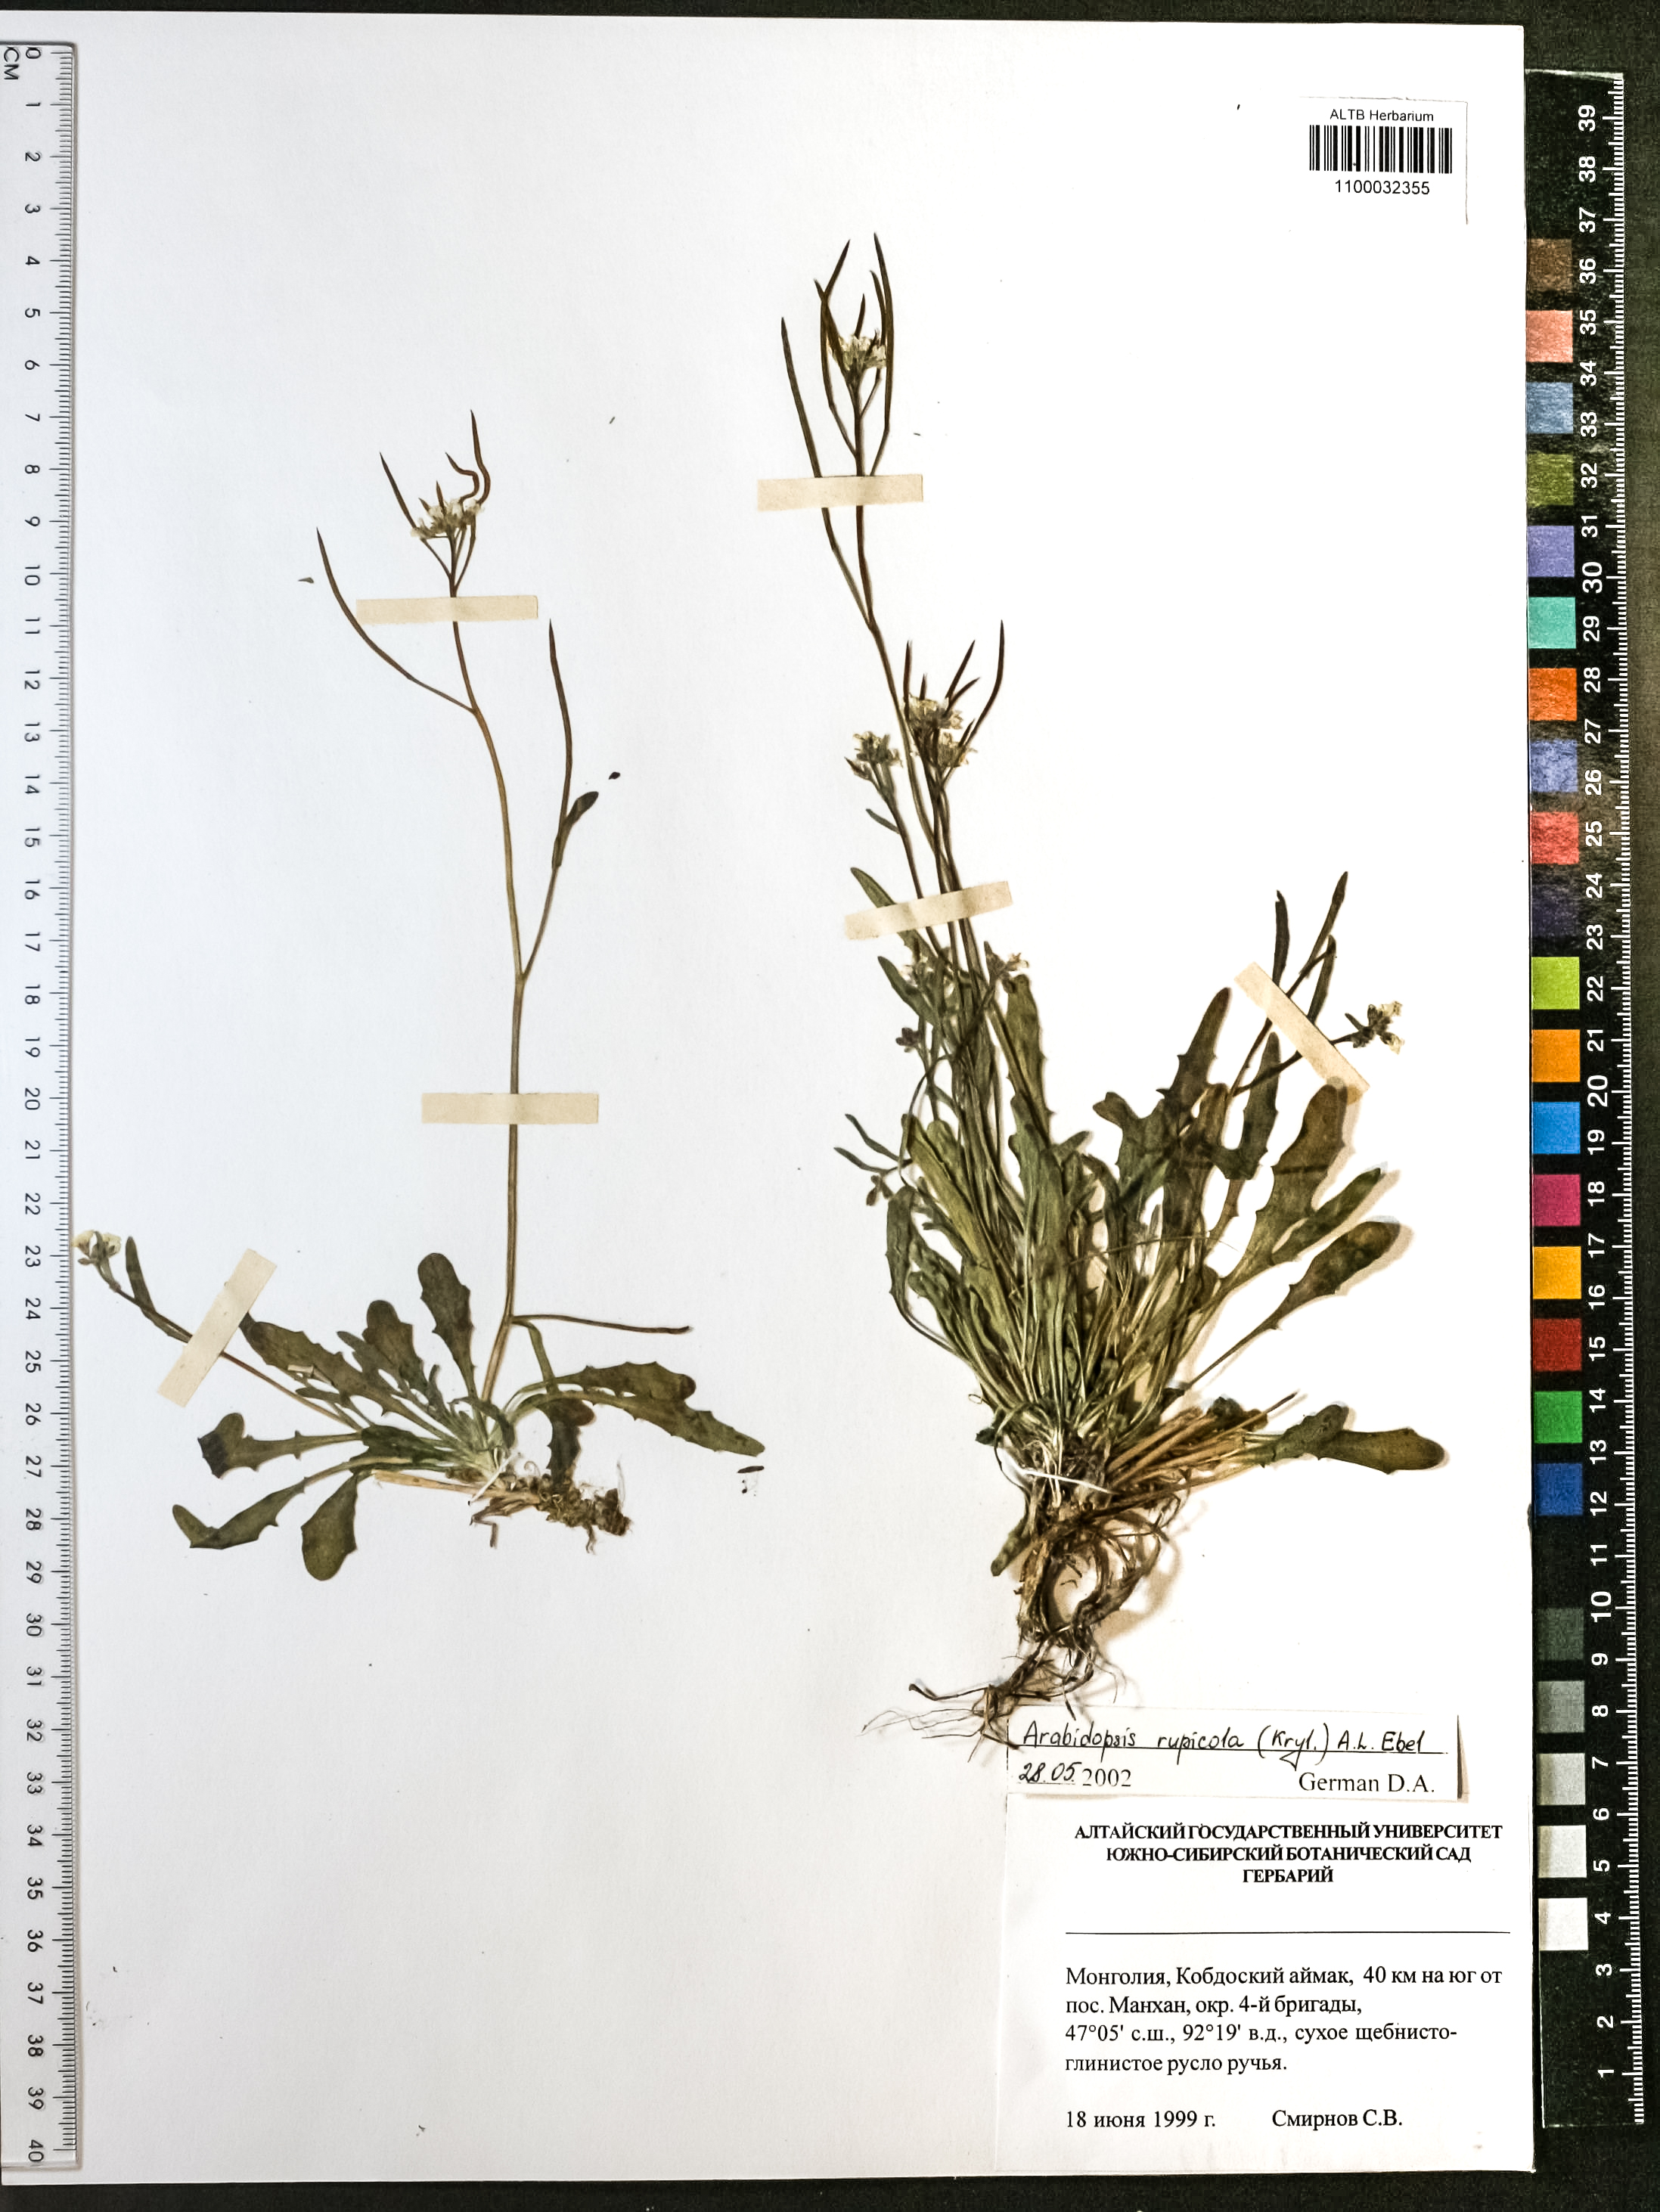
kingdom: Plantae
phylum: Tracheophyta
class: Magnoliopsida
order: Brassicales
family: Brassicaceae
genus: Crucihimalaya
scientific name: Crucihimalaya rupicola
